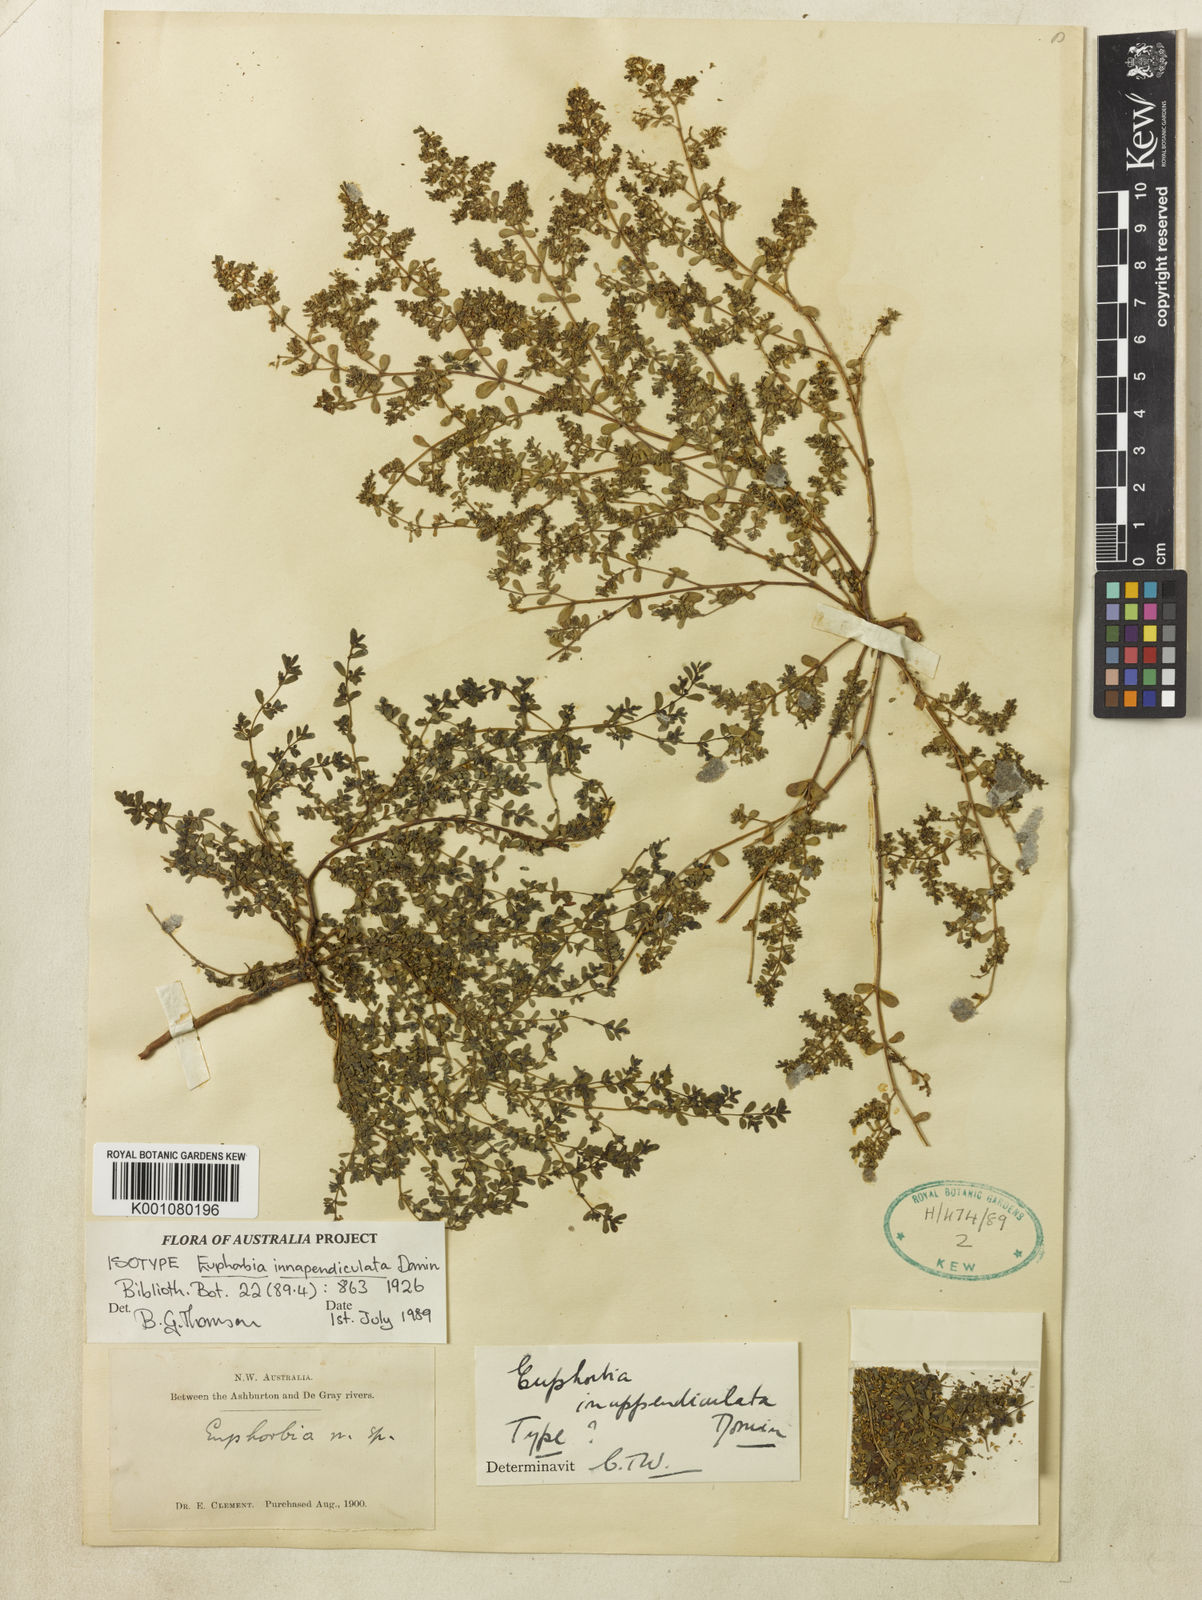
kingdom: Plantae
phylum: Tracheophyta
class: Magnoliopsida
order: Malpighiales
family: Euphorbiaceae
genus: Euphorbia
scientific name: Euphorbia inappendiculata
